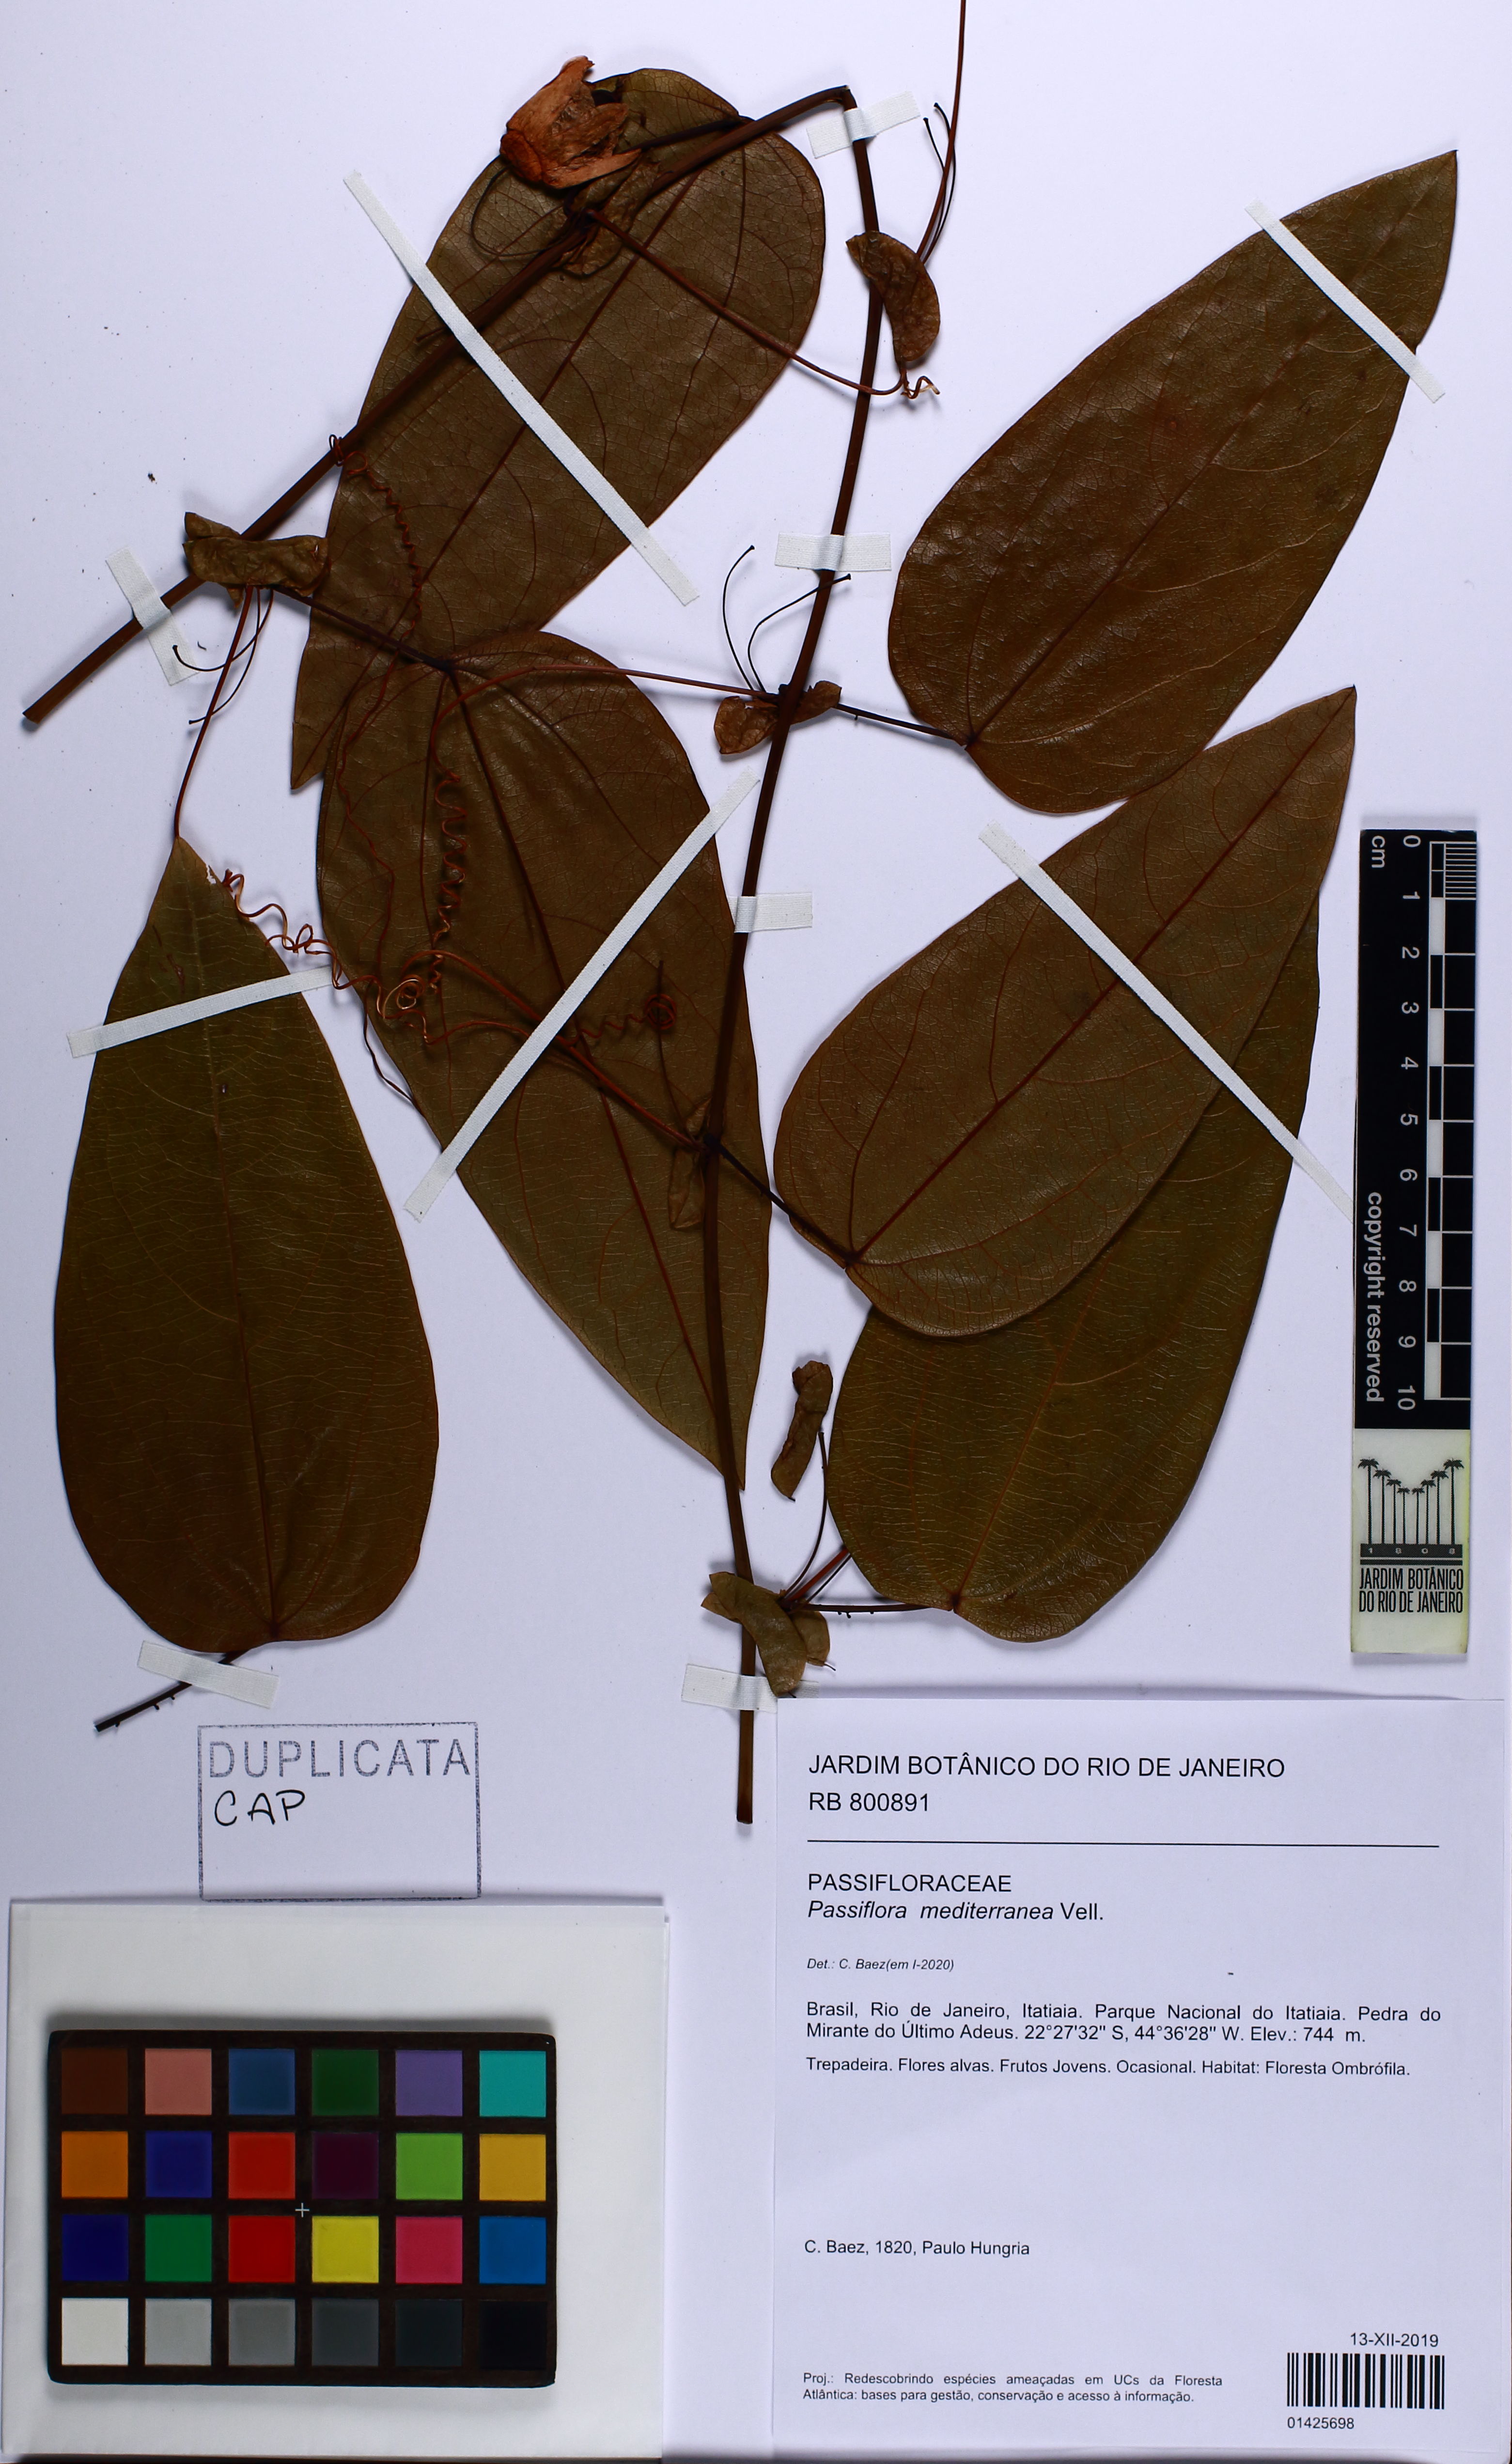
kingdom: Plantae
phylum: Tracheophyta
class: Magnoliopsida
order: Malpighiales
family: Passifloraceae
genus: Passiflora
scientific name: Passiflora mediterranea
